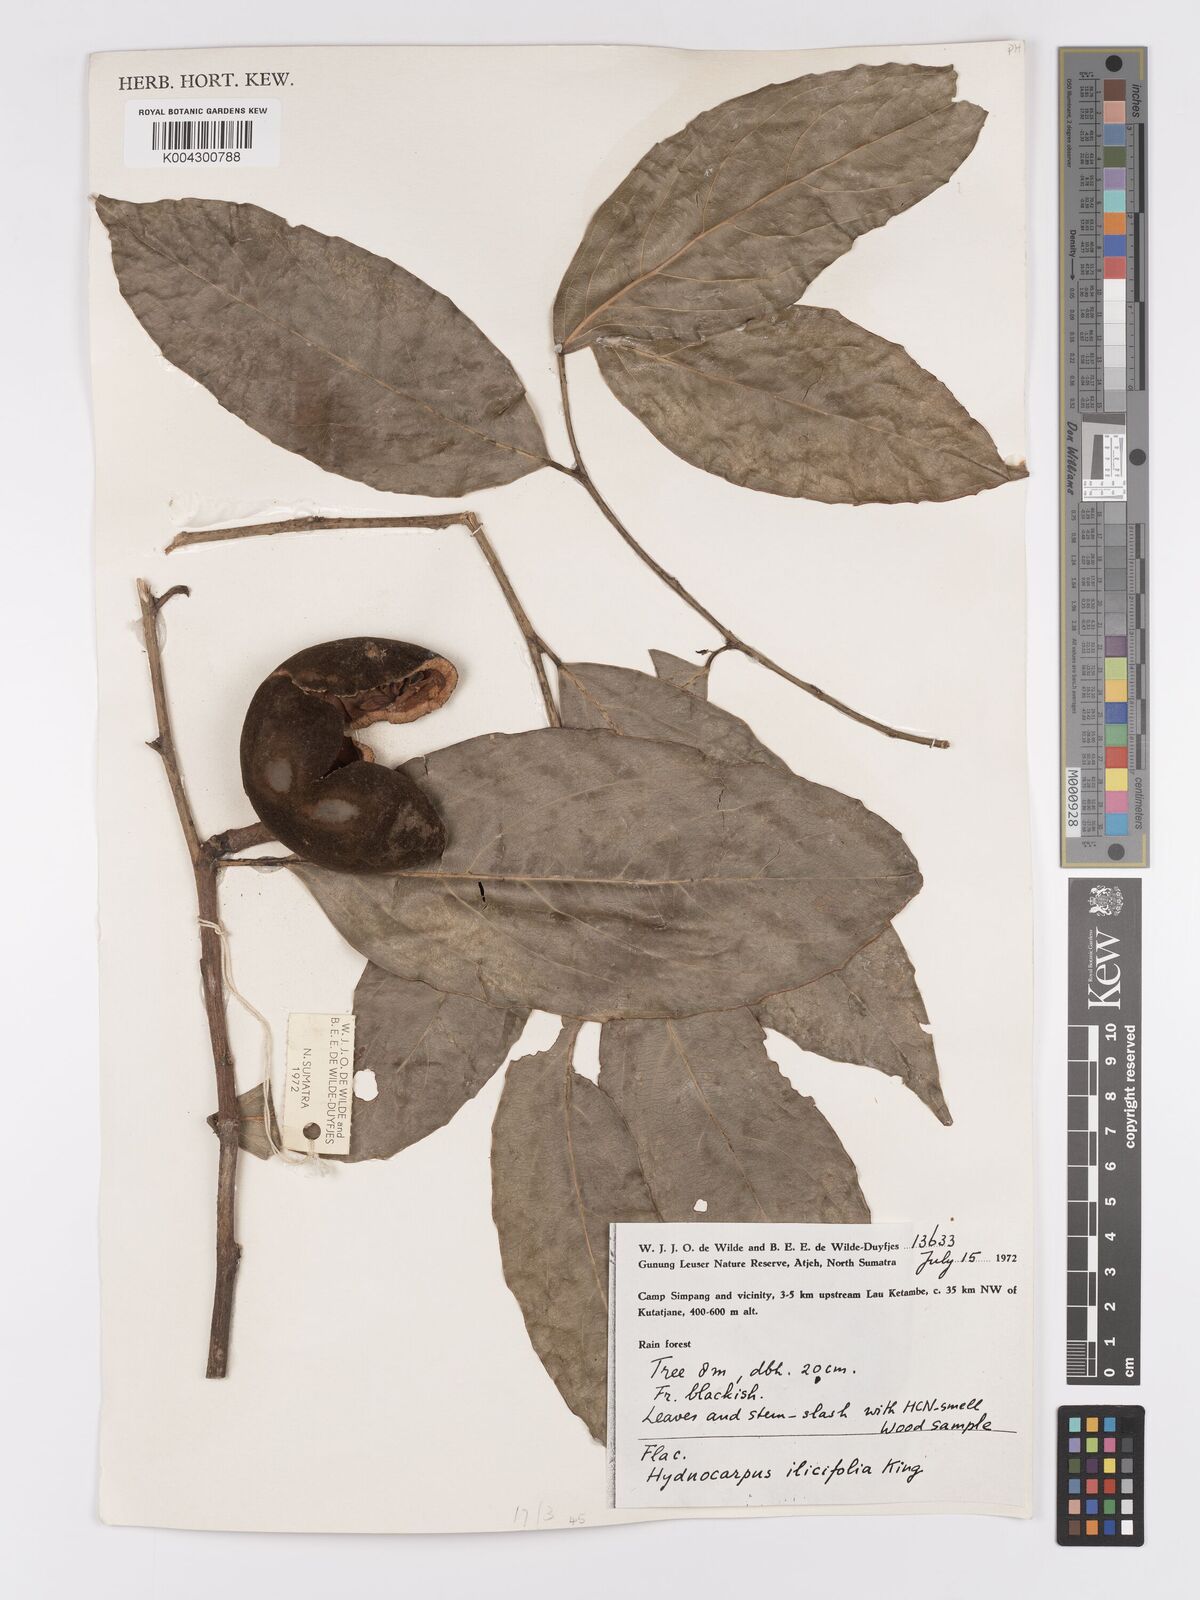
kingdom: Plantae
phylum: Tracheophyta
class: Magnoliopsida
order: Malpighiales
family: Achariaceae
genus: Hydnocarpus
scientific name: Hydnocarpus ilicifolius
